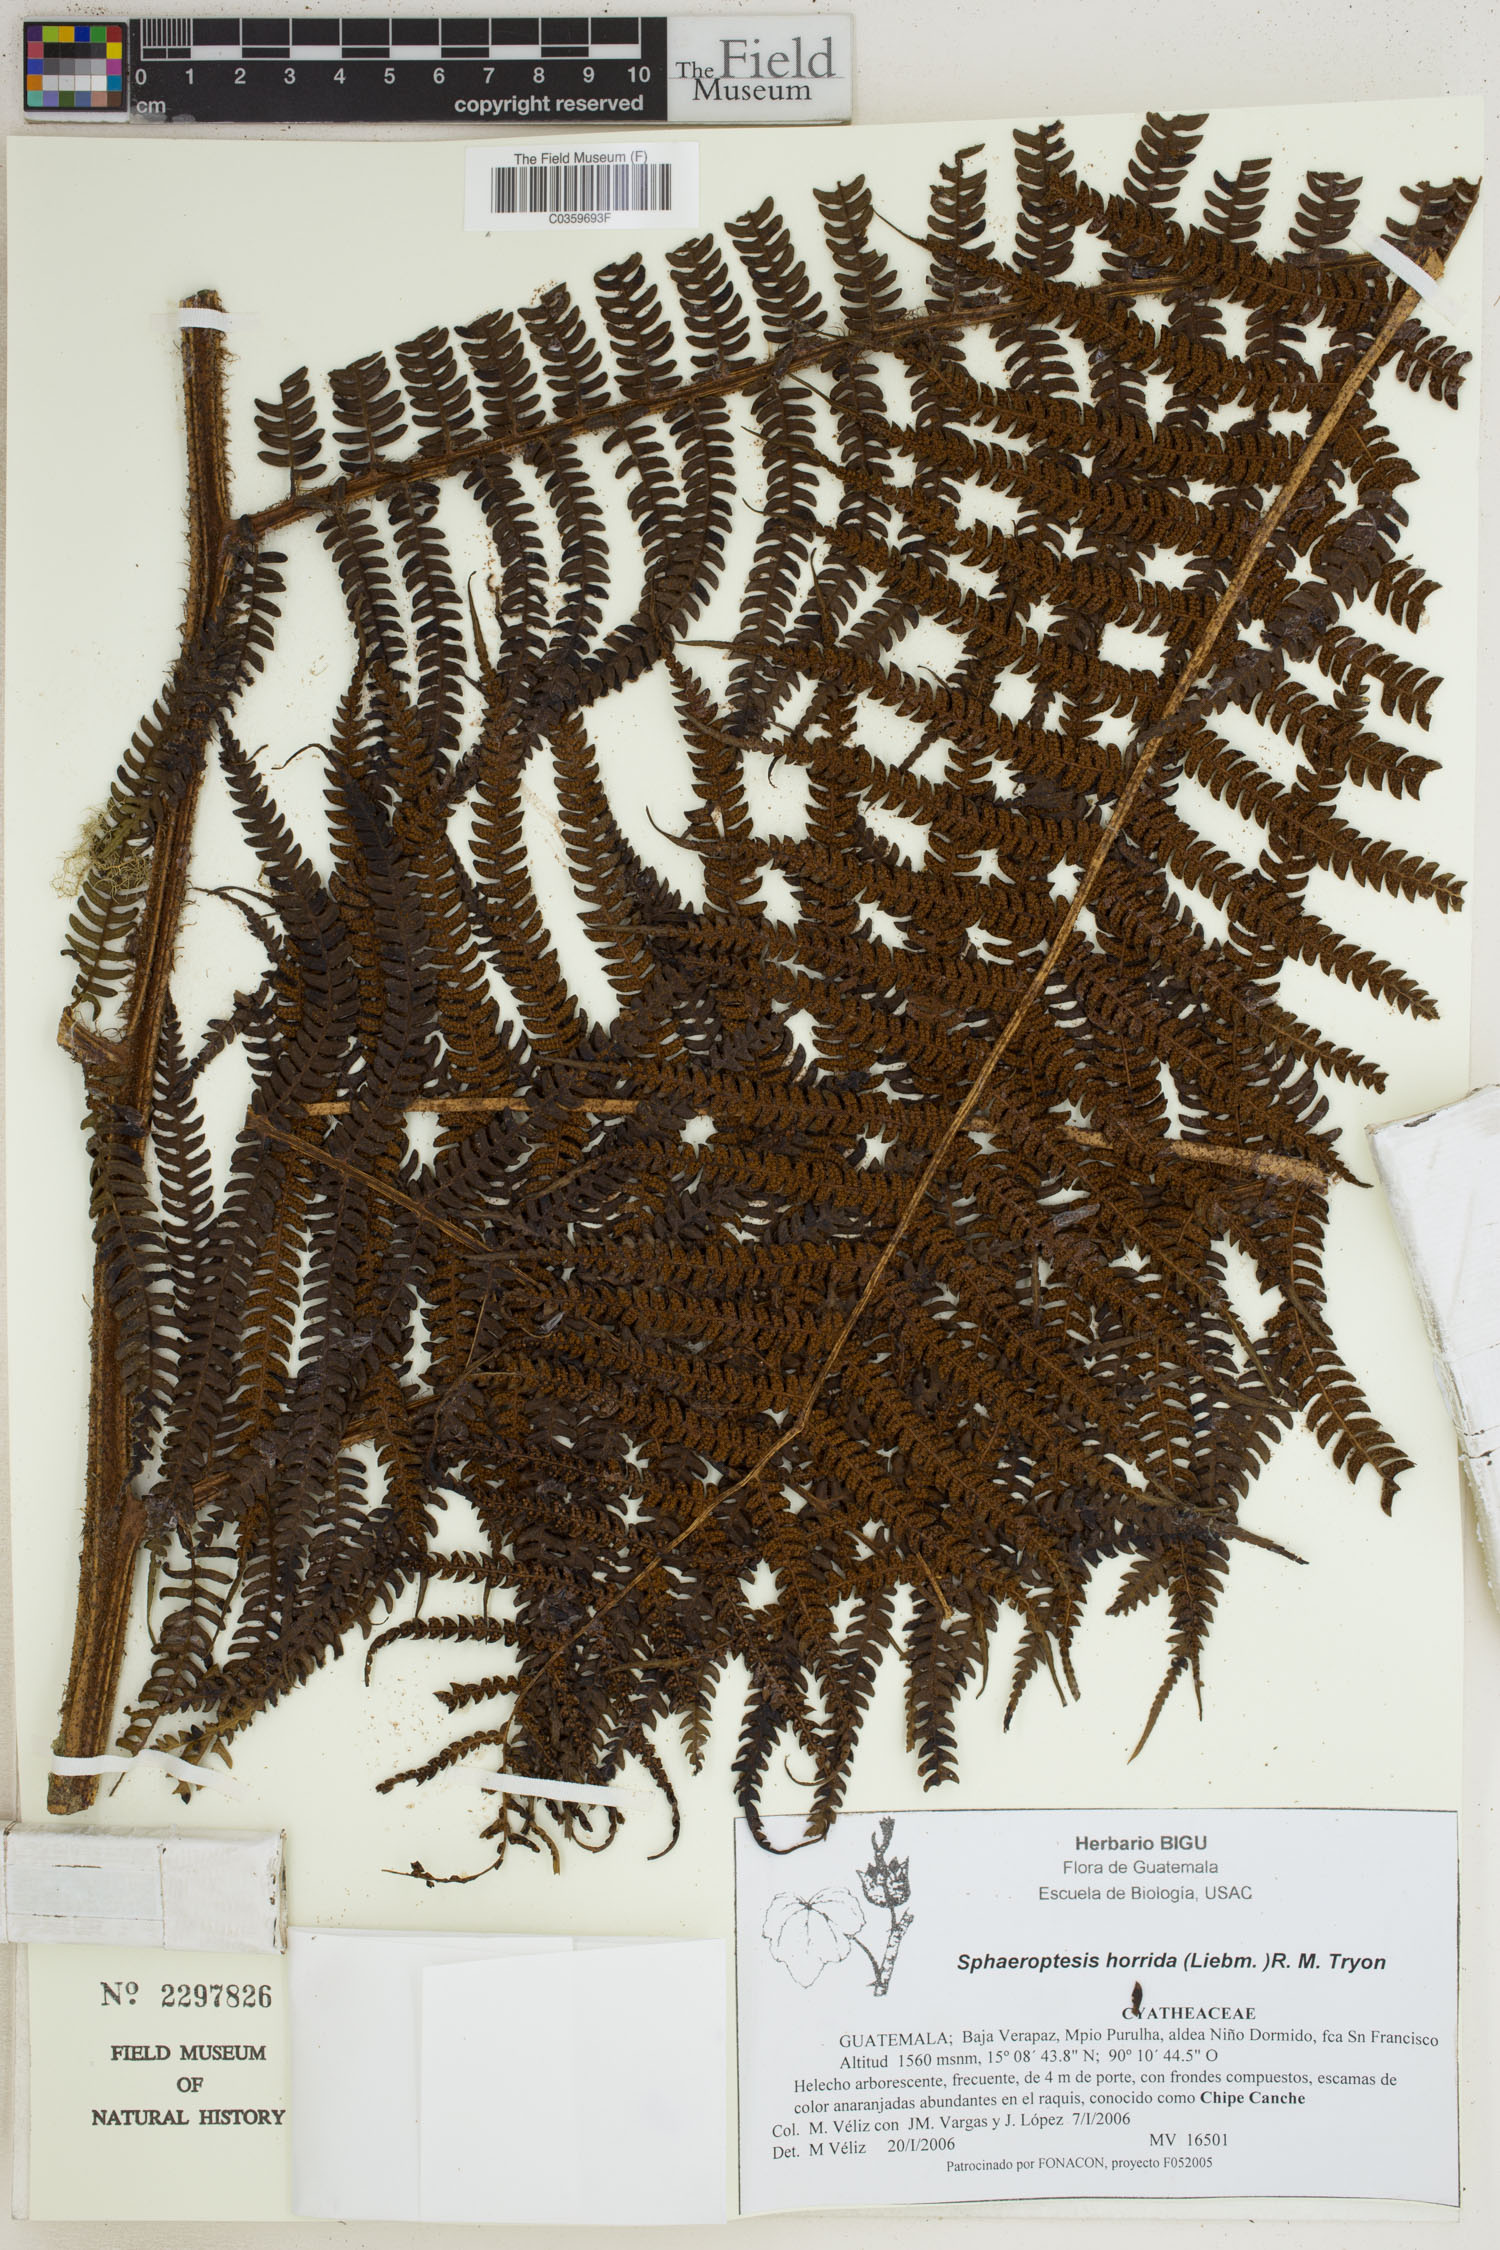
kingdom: Plantae
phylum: Tracheophyta
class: Polypodiopsida
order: Cyatheales
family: Cyatheaceae
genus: Sphaeropteris
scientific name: Sphaeropteris horrida
